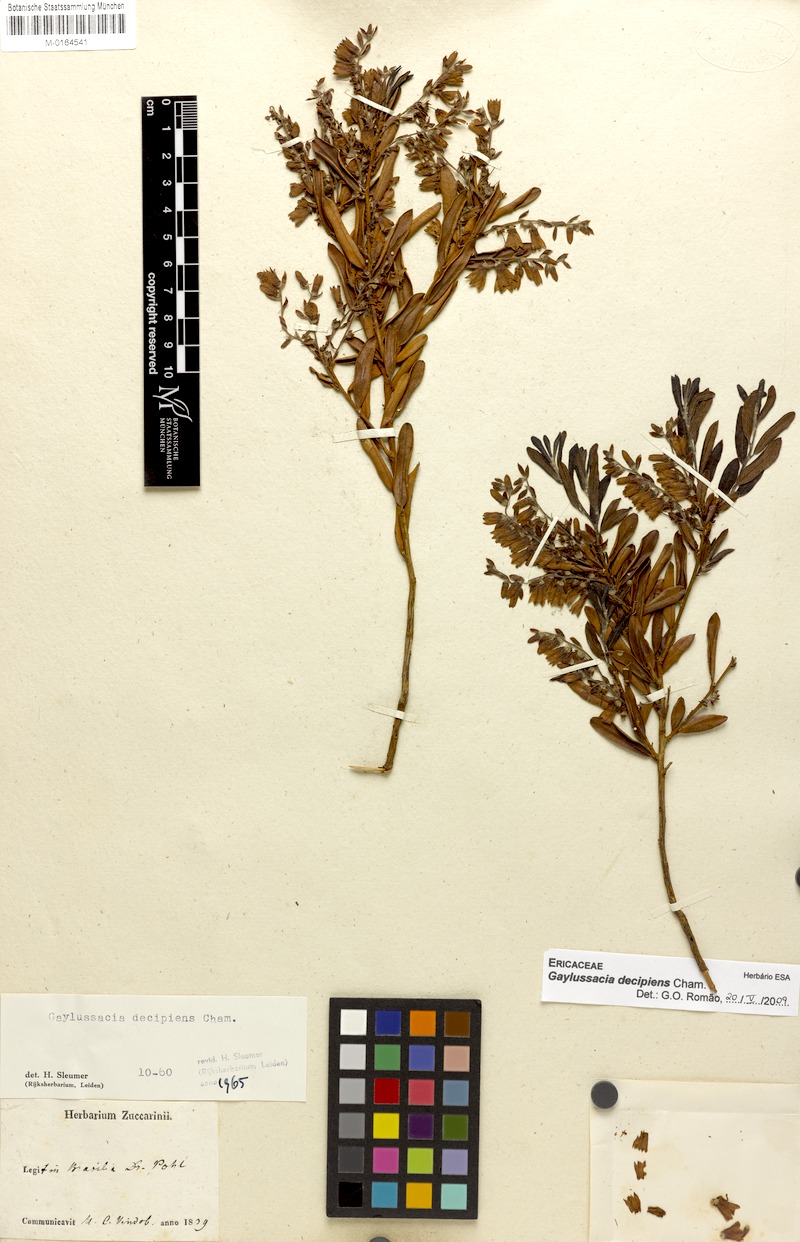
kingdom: Plantae
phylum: Tracheophyta
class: Magnoliopsida
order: Ericales
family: Ericaceae
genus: Gaylussacia
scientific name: Gaylussacia decipiens
